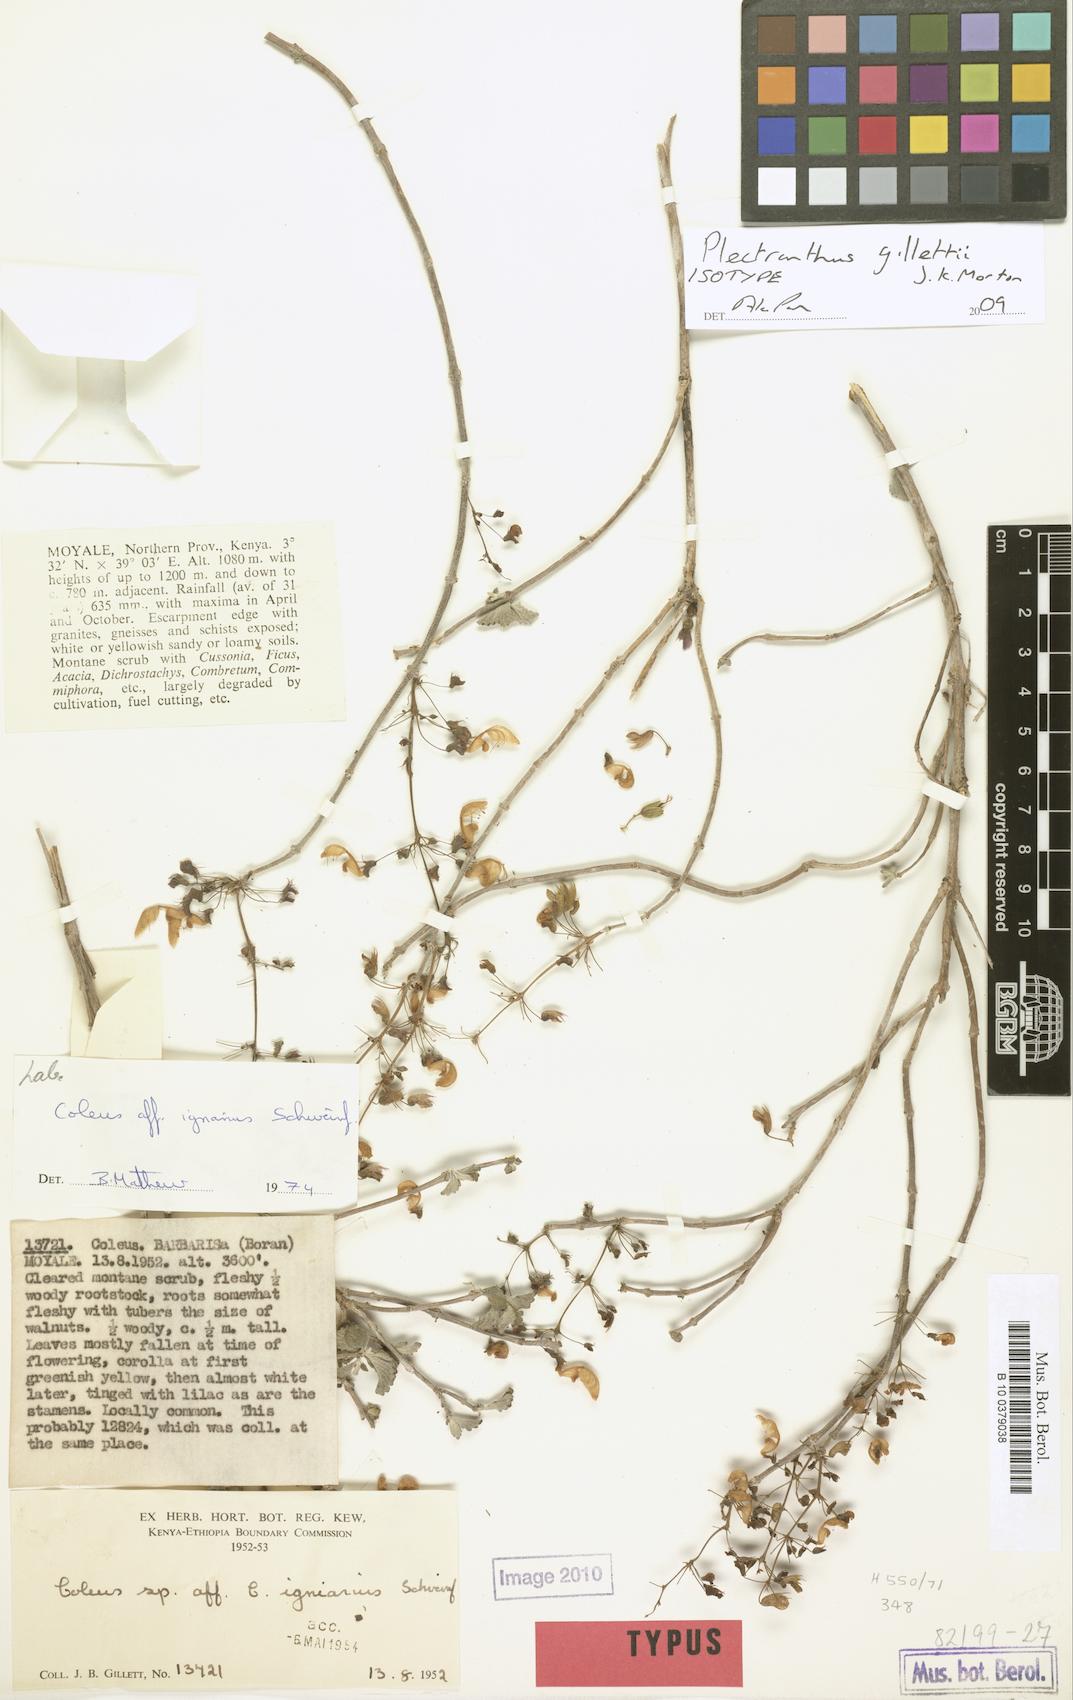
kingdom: Plantae
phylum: Tracheophyta
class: Magnoliopsida
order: Lamiales
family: Lamiaceae
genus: Coleus
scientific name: Coleus gillettii
